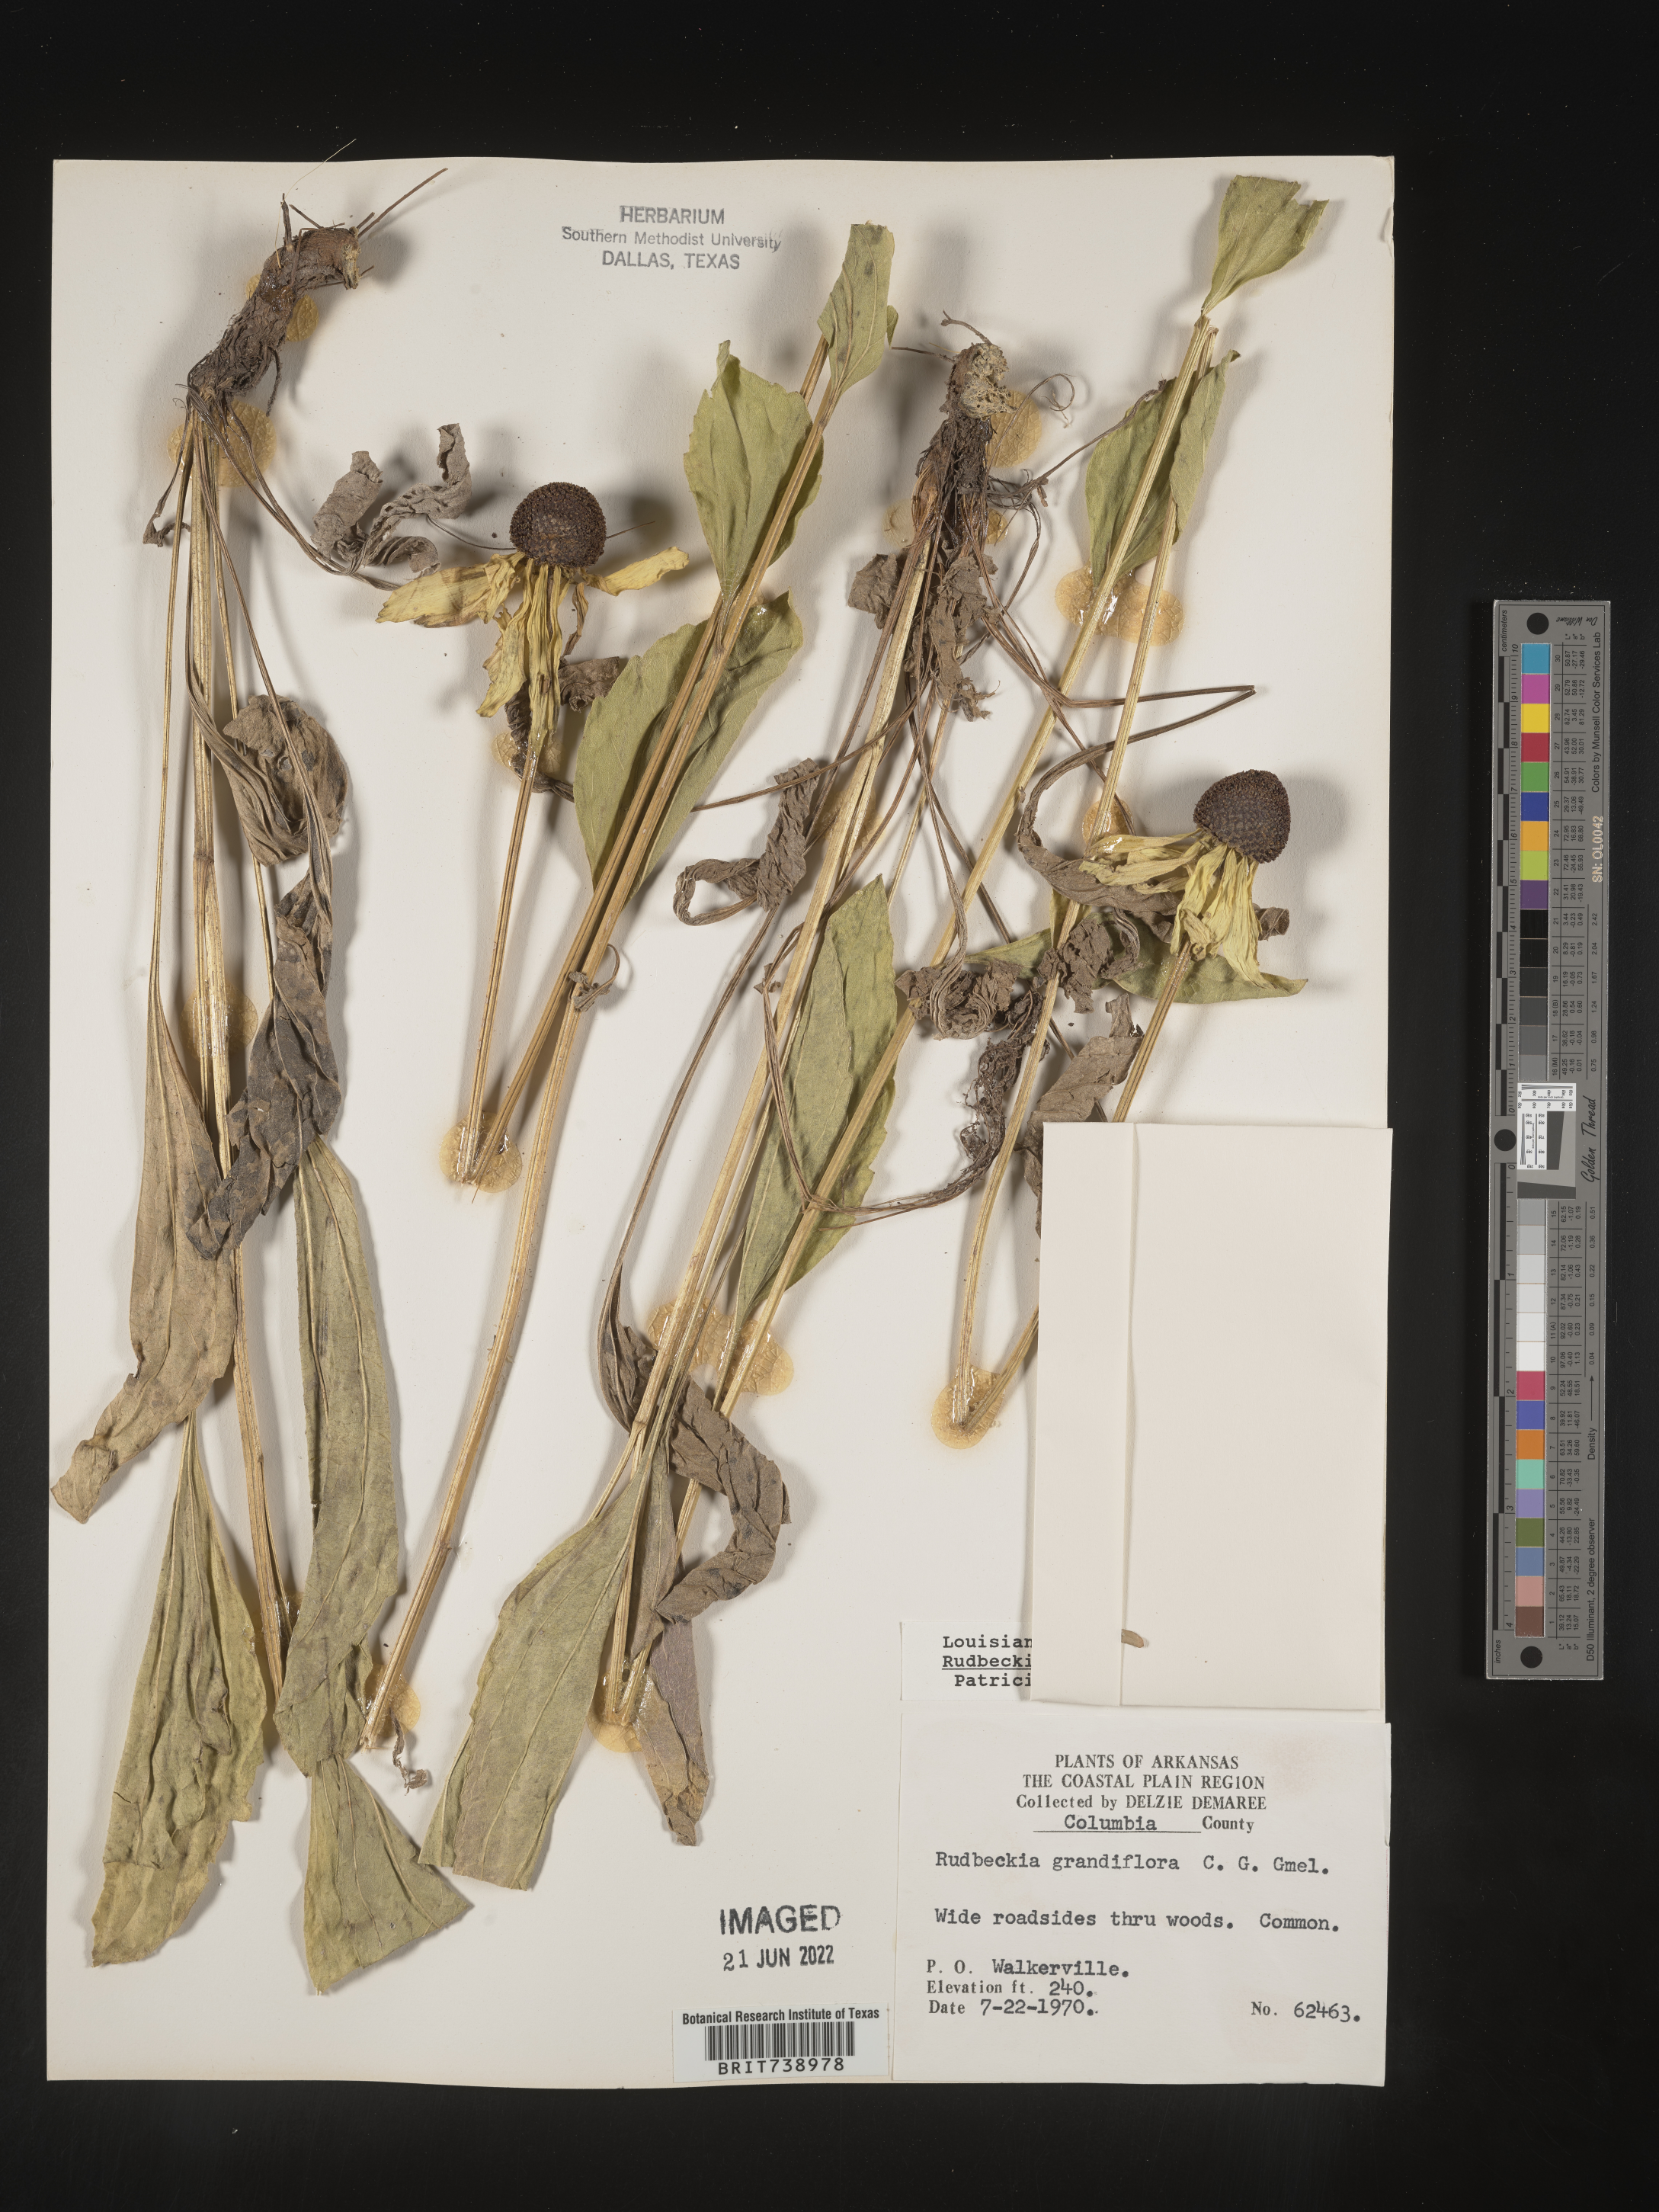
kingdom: Plantae
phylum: Tracheophyta
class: Magnoliopsida
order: Asterales
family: Asteraceae
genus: Rudbeckia
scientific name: Rudbeckia grandiflora
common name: Large-flowered coneflower
